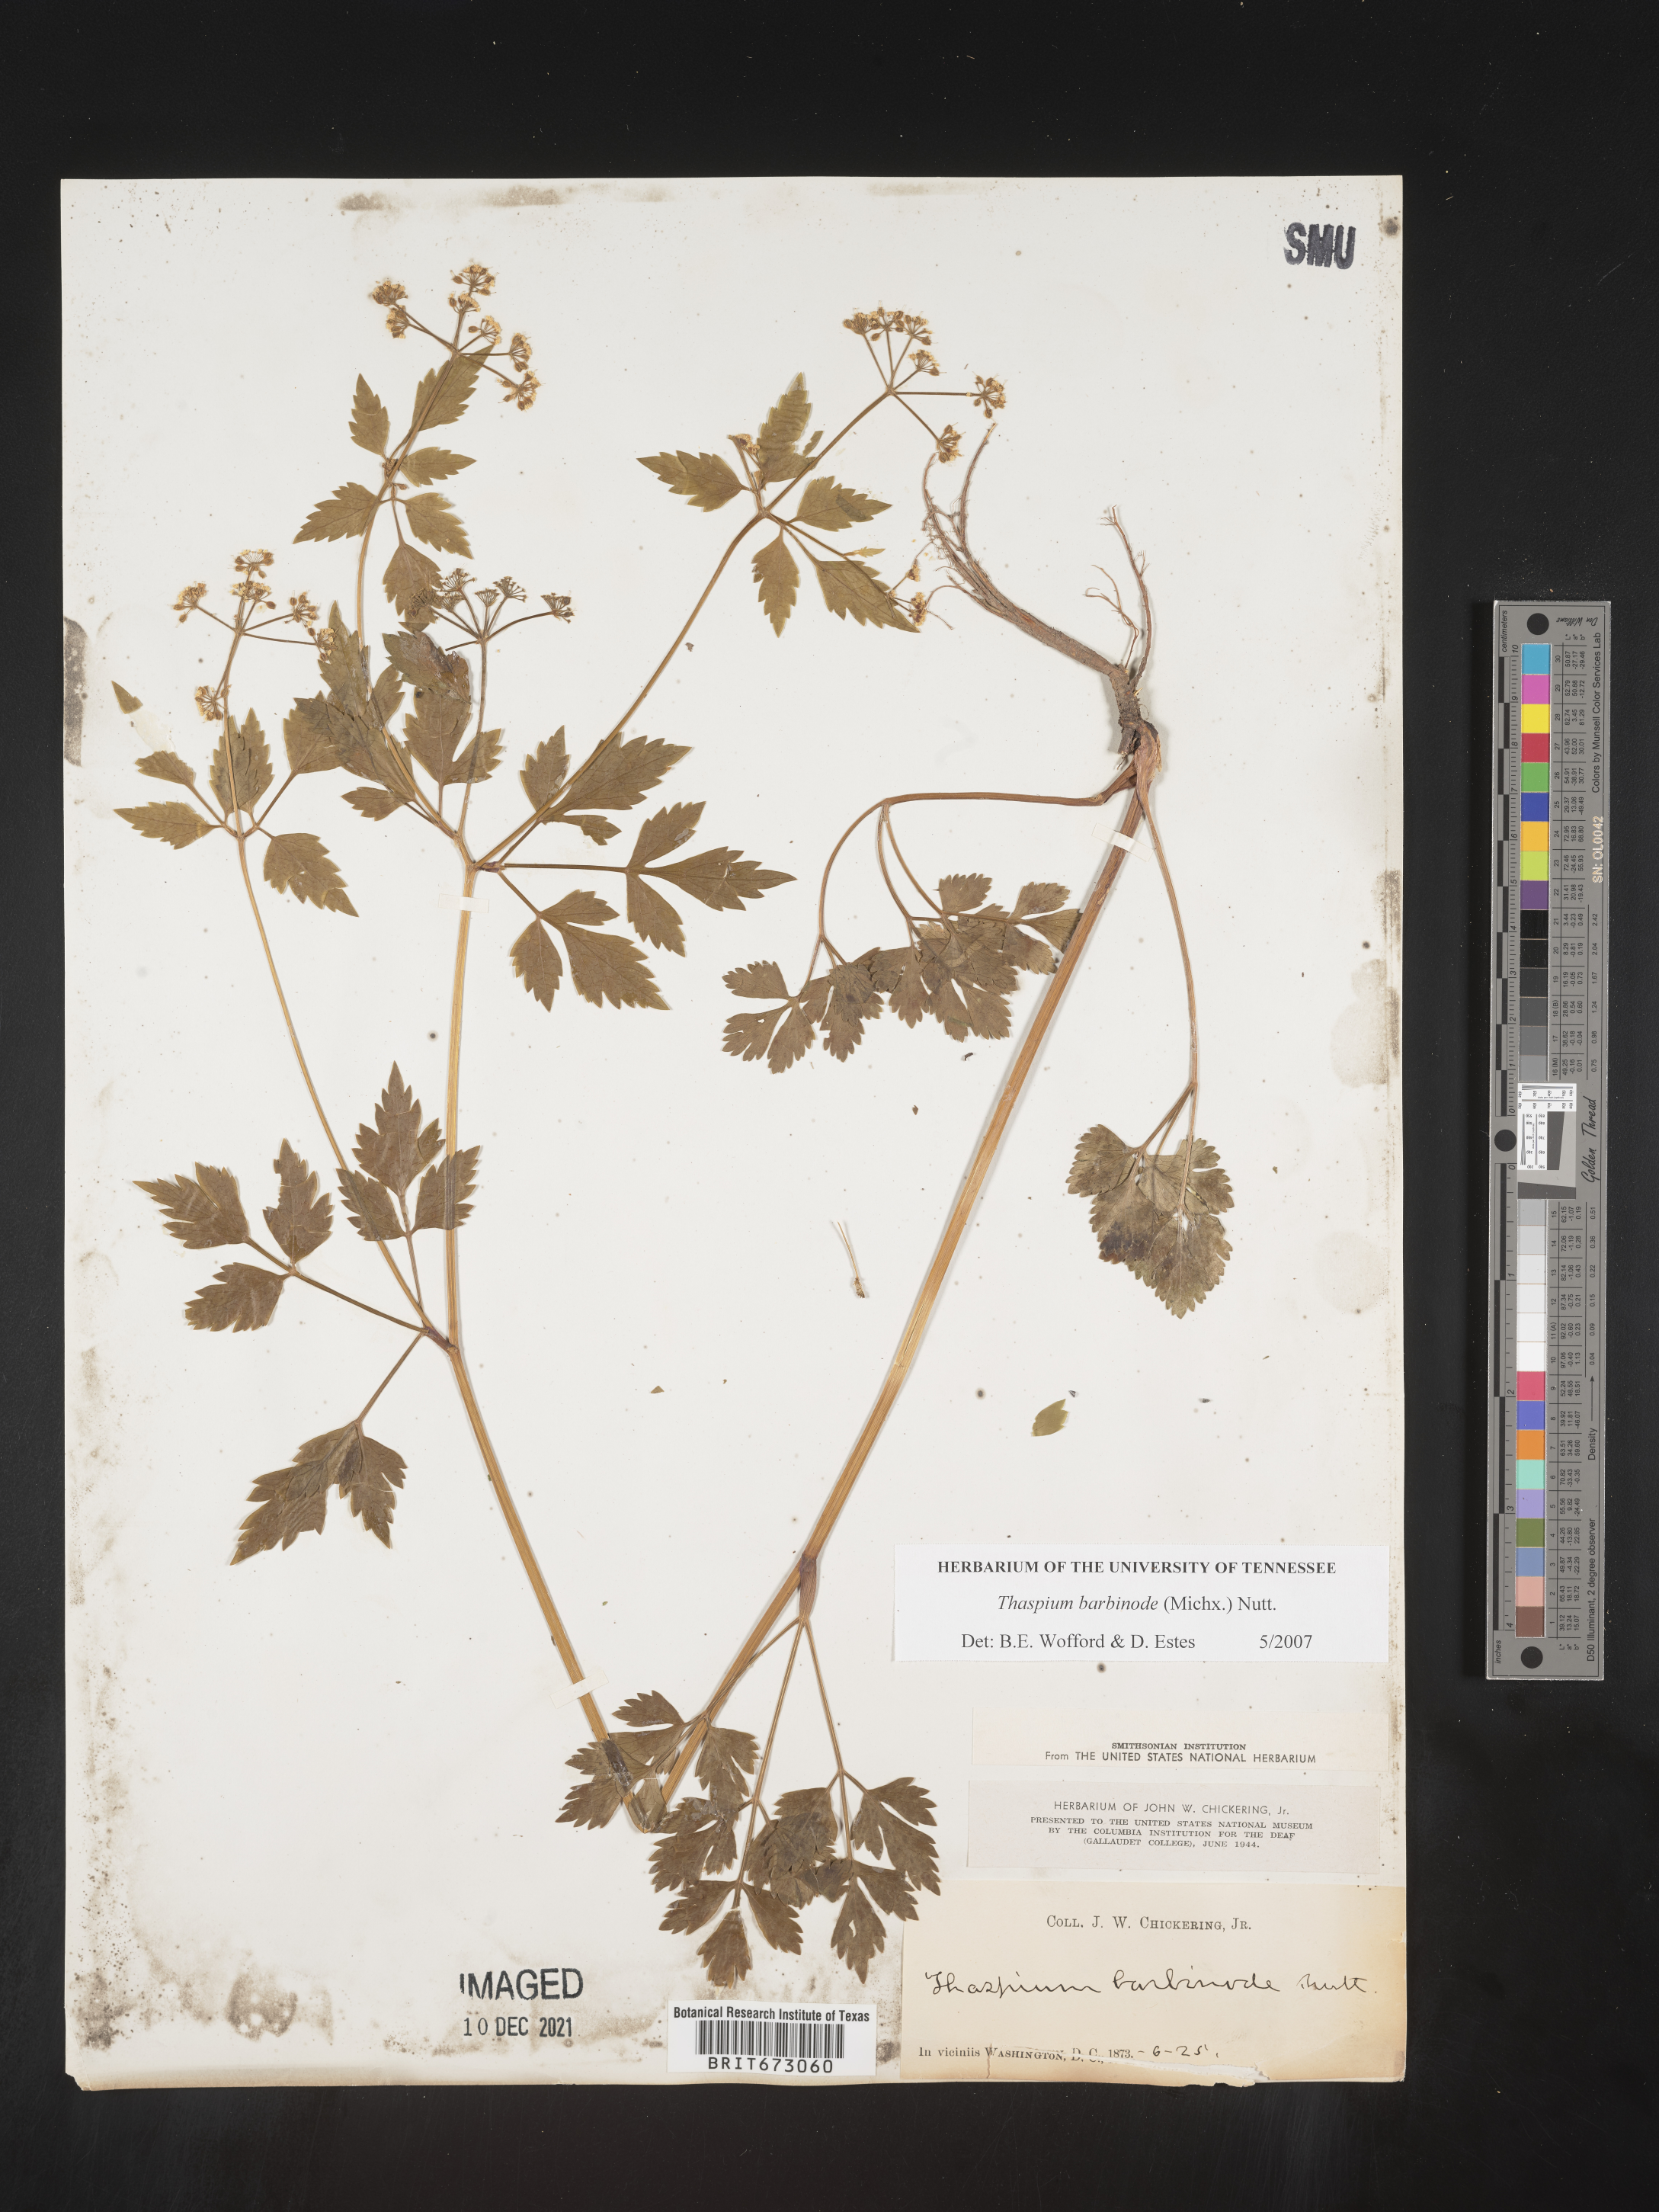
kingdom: Plantae
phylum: Tracheophyta
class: Magnoliopsida
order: Apiales
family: Apiaceae
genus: Thaspium
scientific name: Thaspium barbinode
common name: Bearded meadow-parsnip
